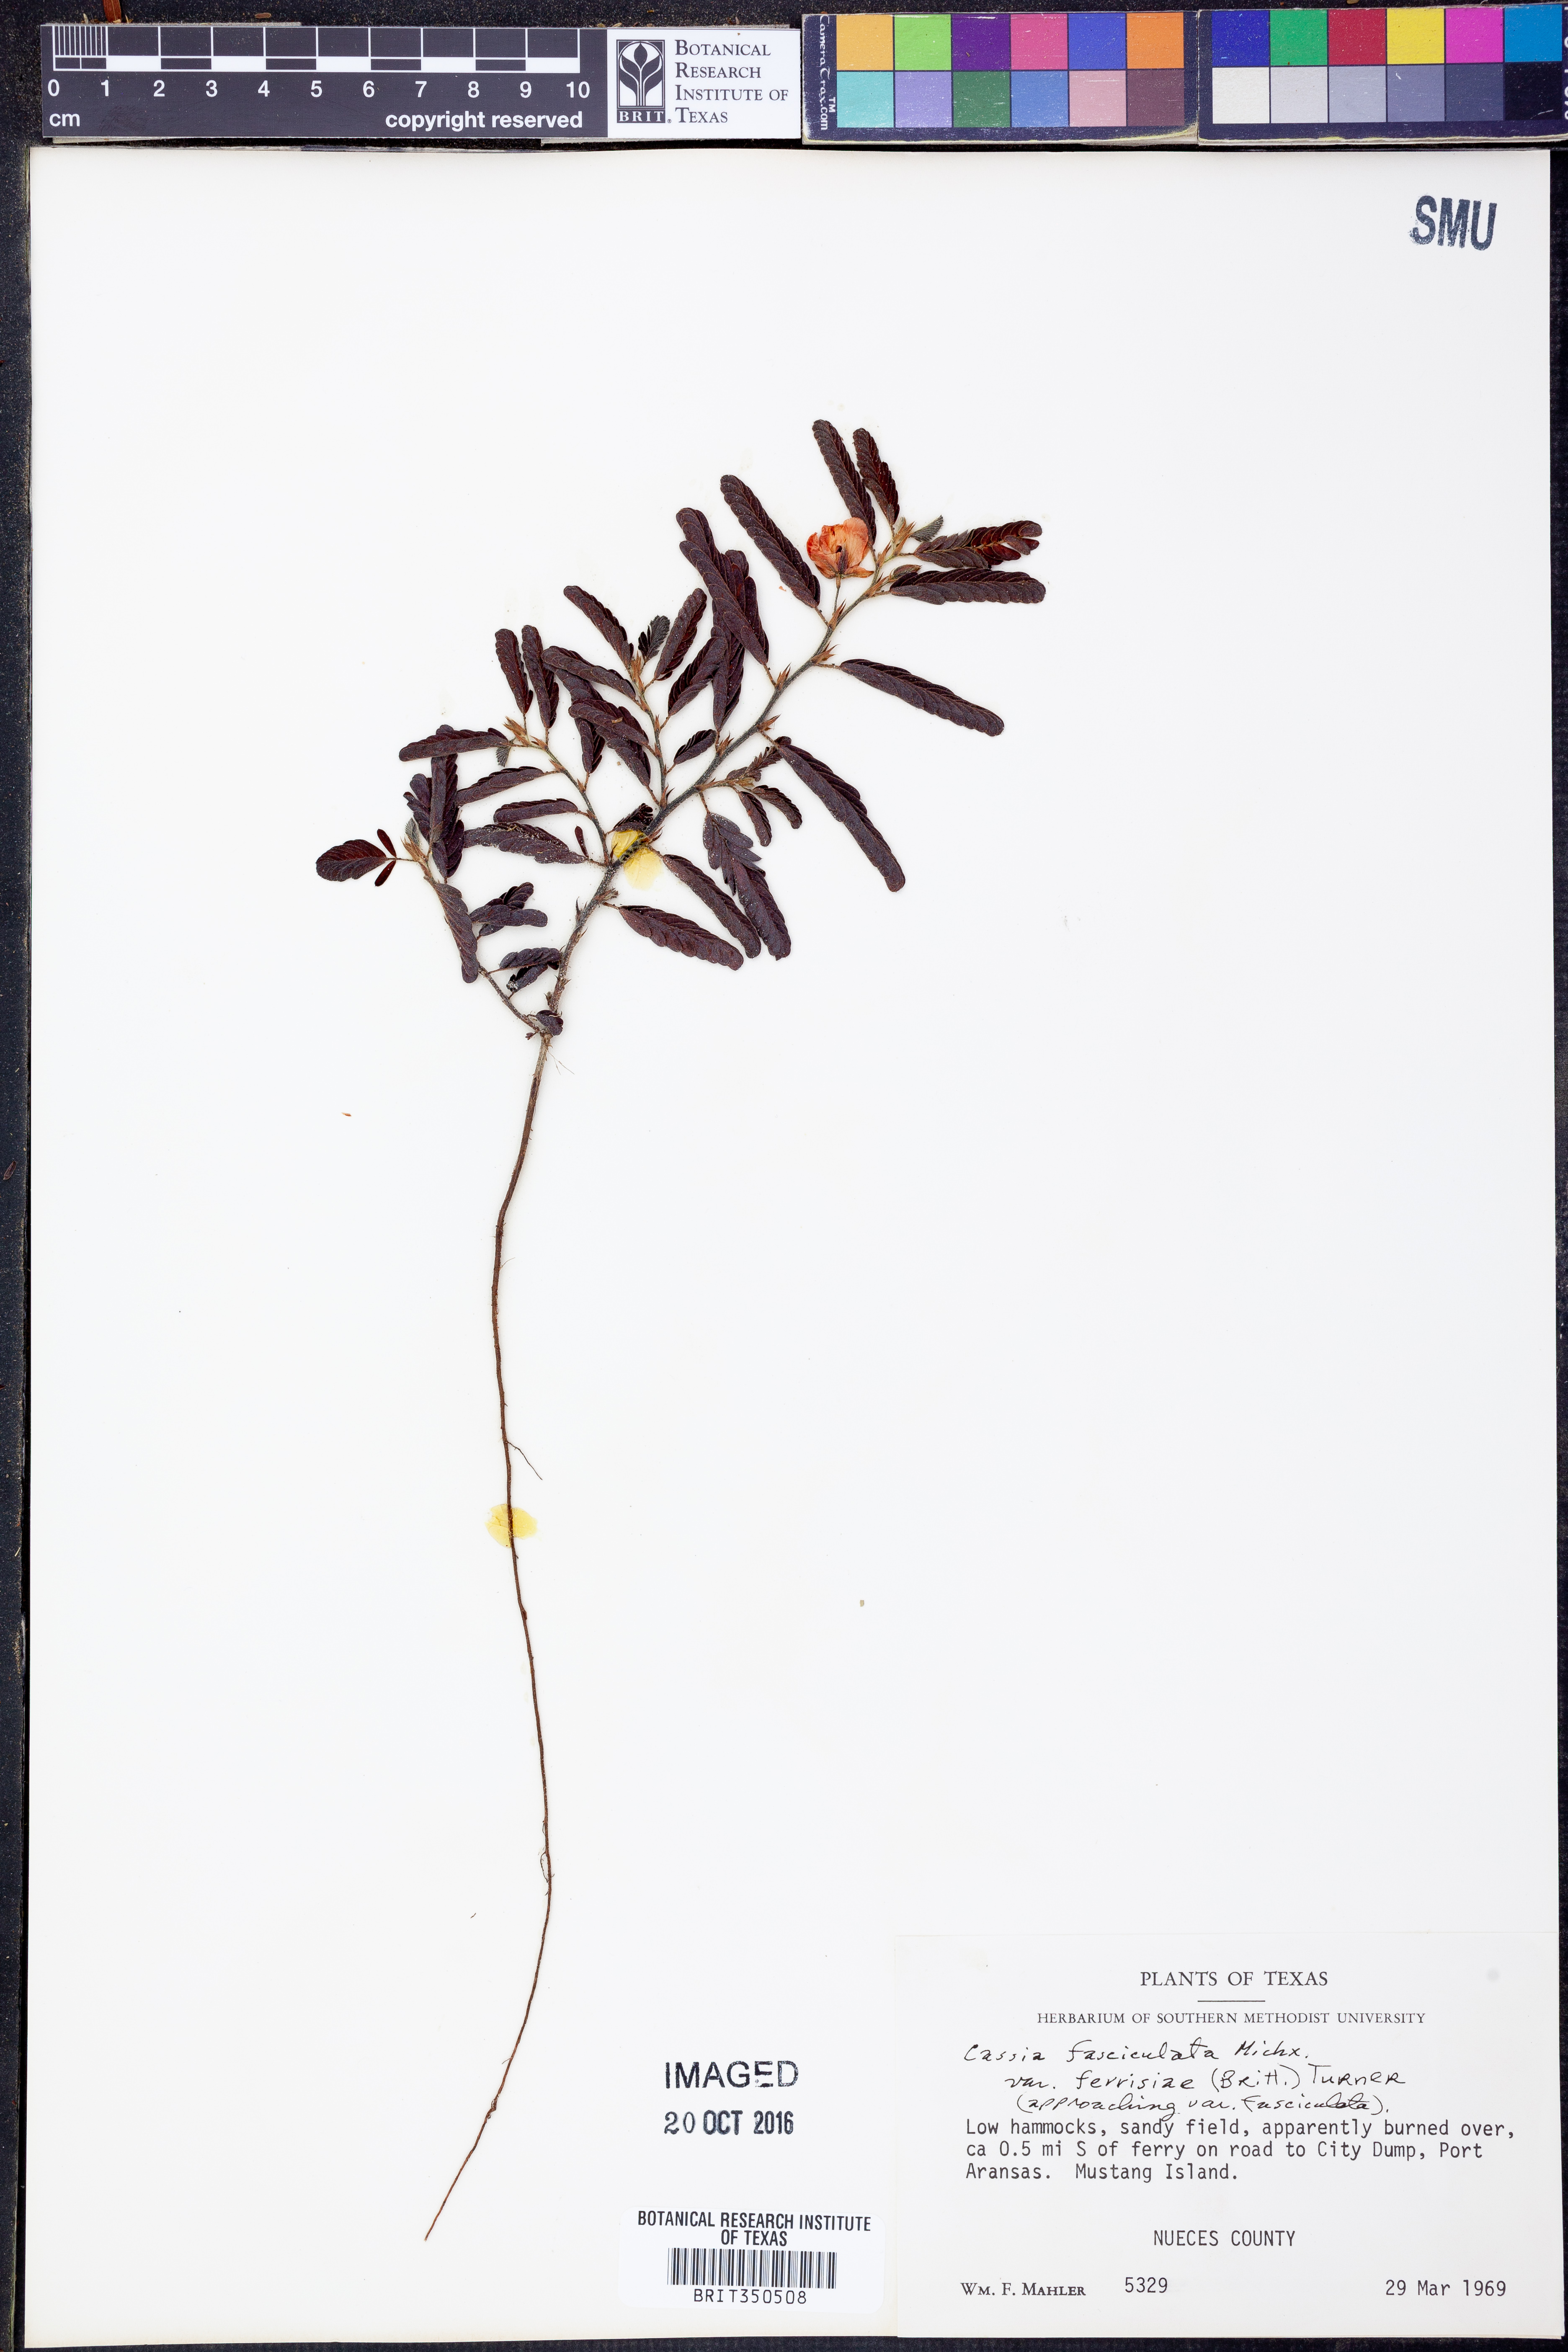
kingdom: Plantae
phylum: Tracheophyta
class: Magnoliopsida
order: Fabales
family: Fabaceae
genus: Chamaecrista
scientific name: Chamaecrista fasciculata
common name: Golden cassia
